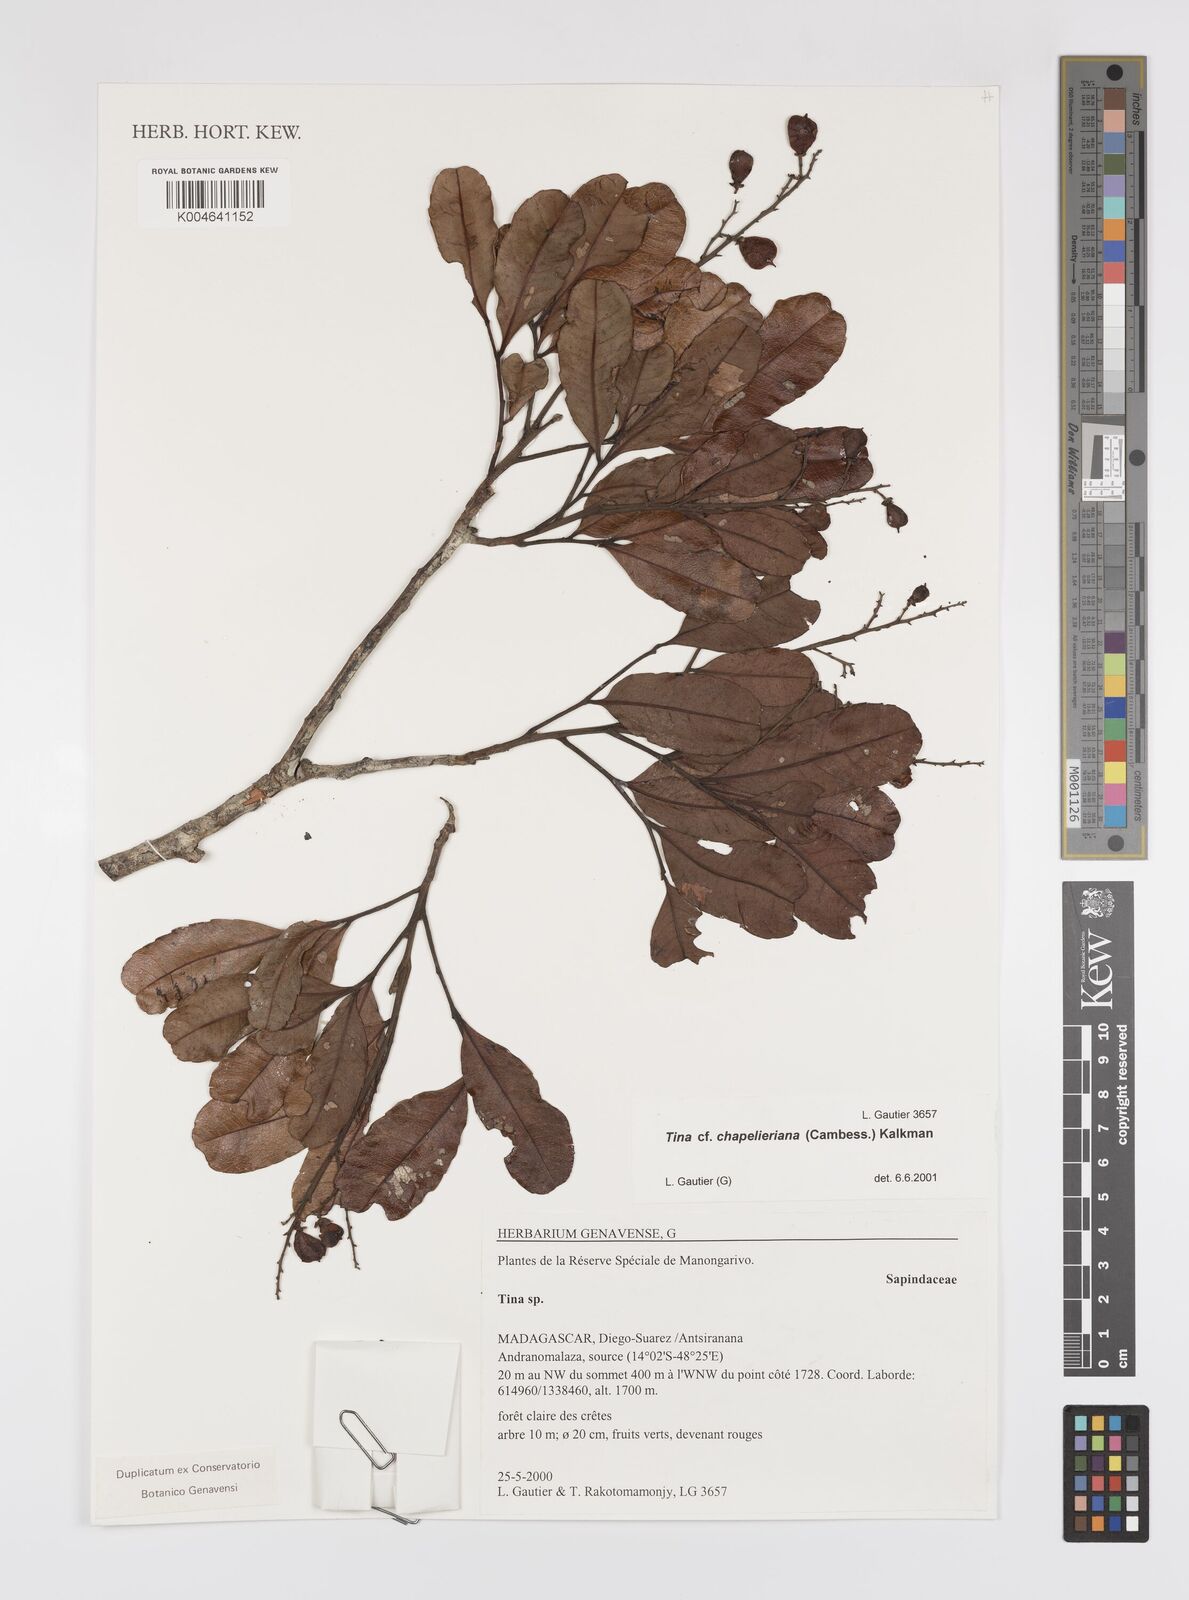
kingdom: Plantae
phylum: Tracheophyta
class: Magnoliopsida
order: Sapindales
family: Sapindaceae
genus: Tina
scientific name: Tina chapelieriana
